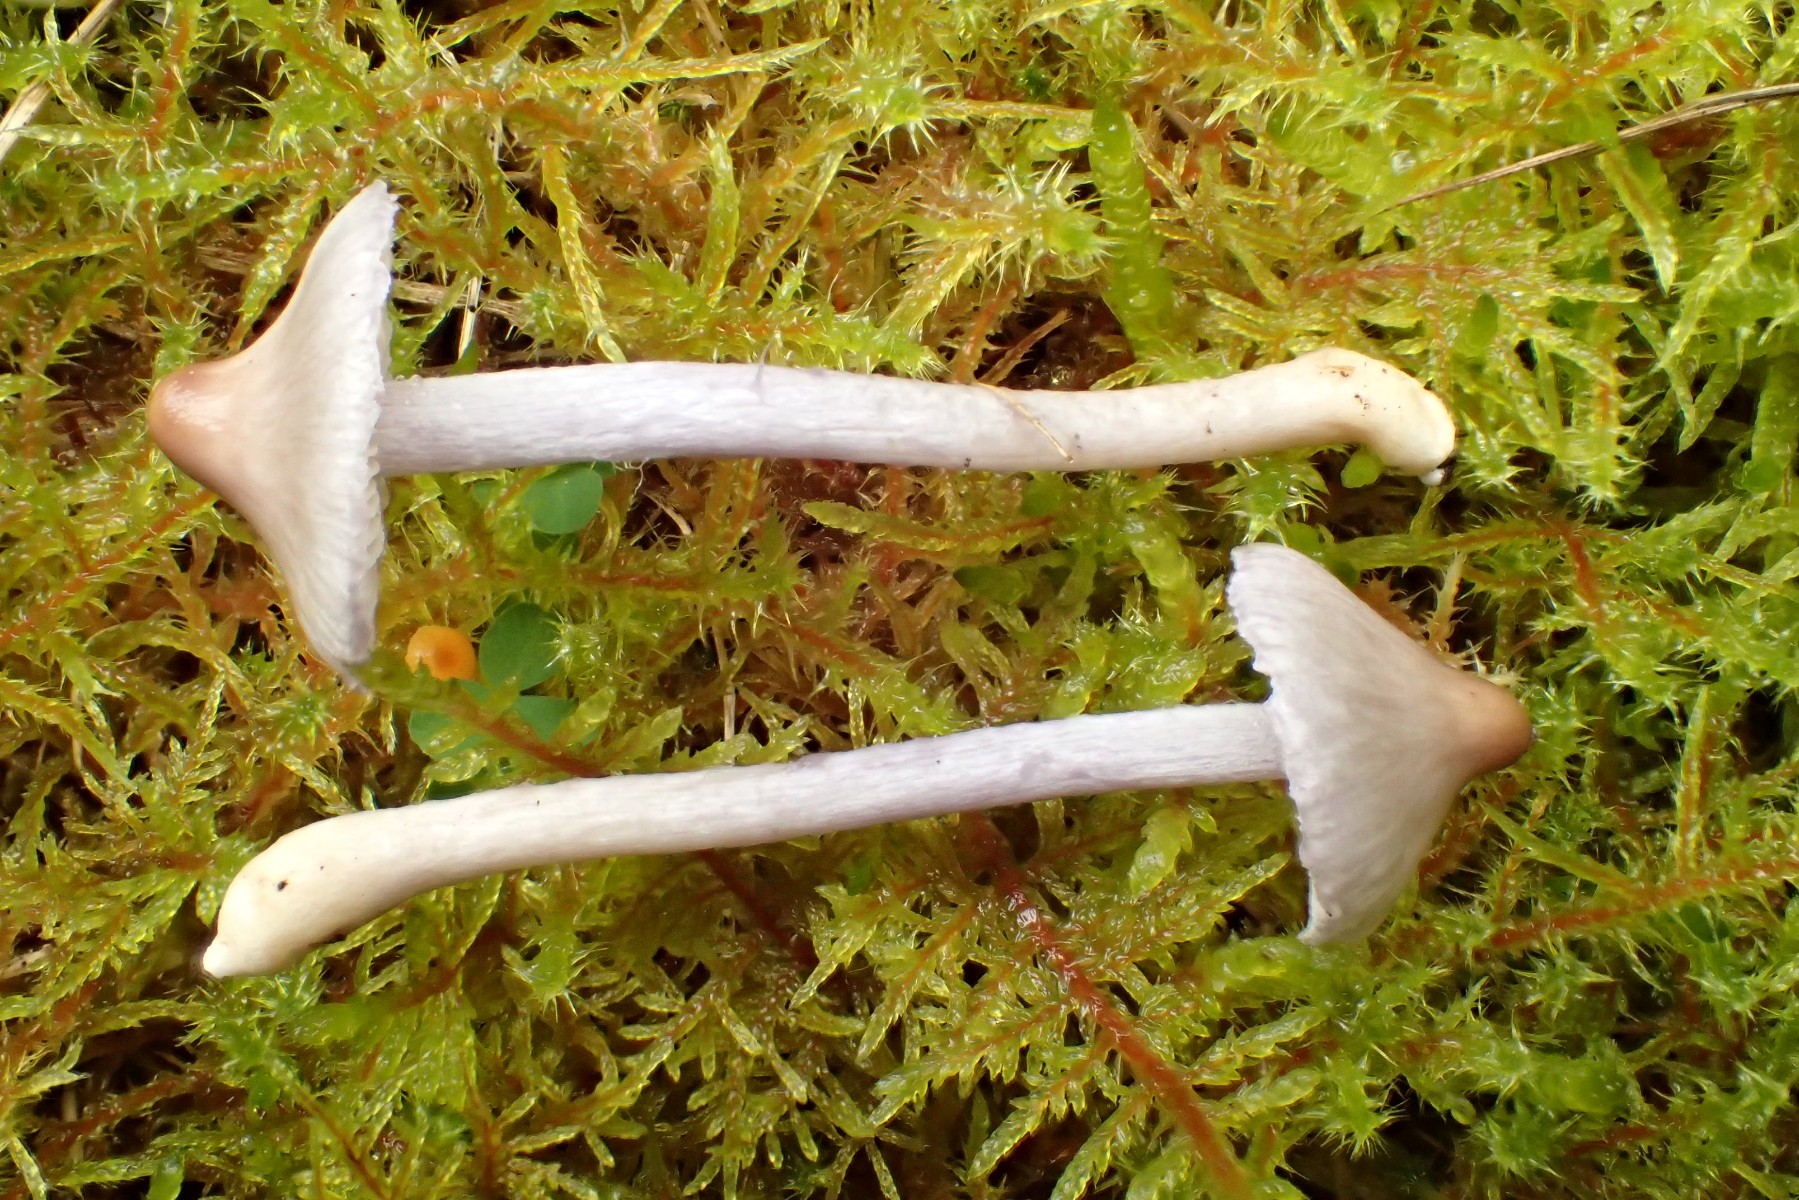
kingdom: Fungi
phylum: Basidiomycota
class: Agaricomycetes
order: Agaricales
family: Inocybaceae
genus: Inocybe
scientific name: Inocybe geophylla
